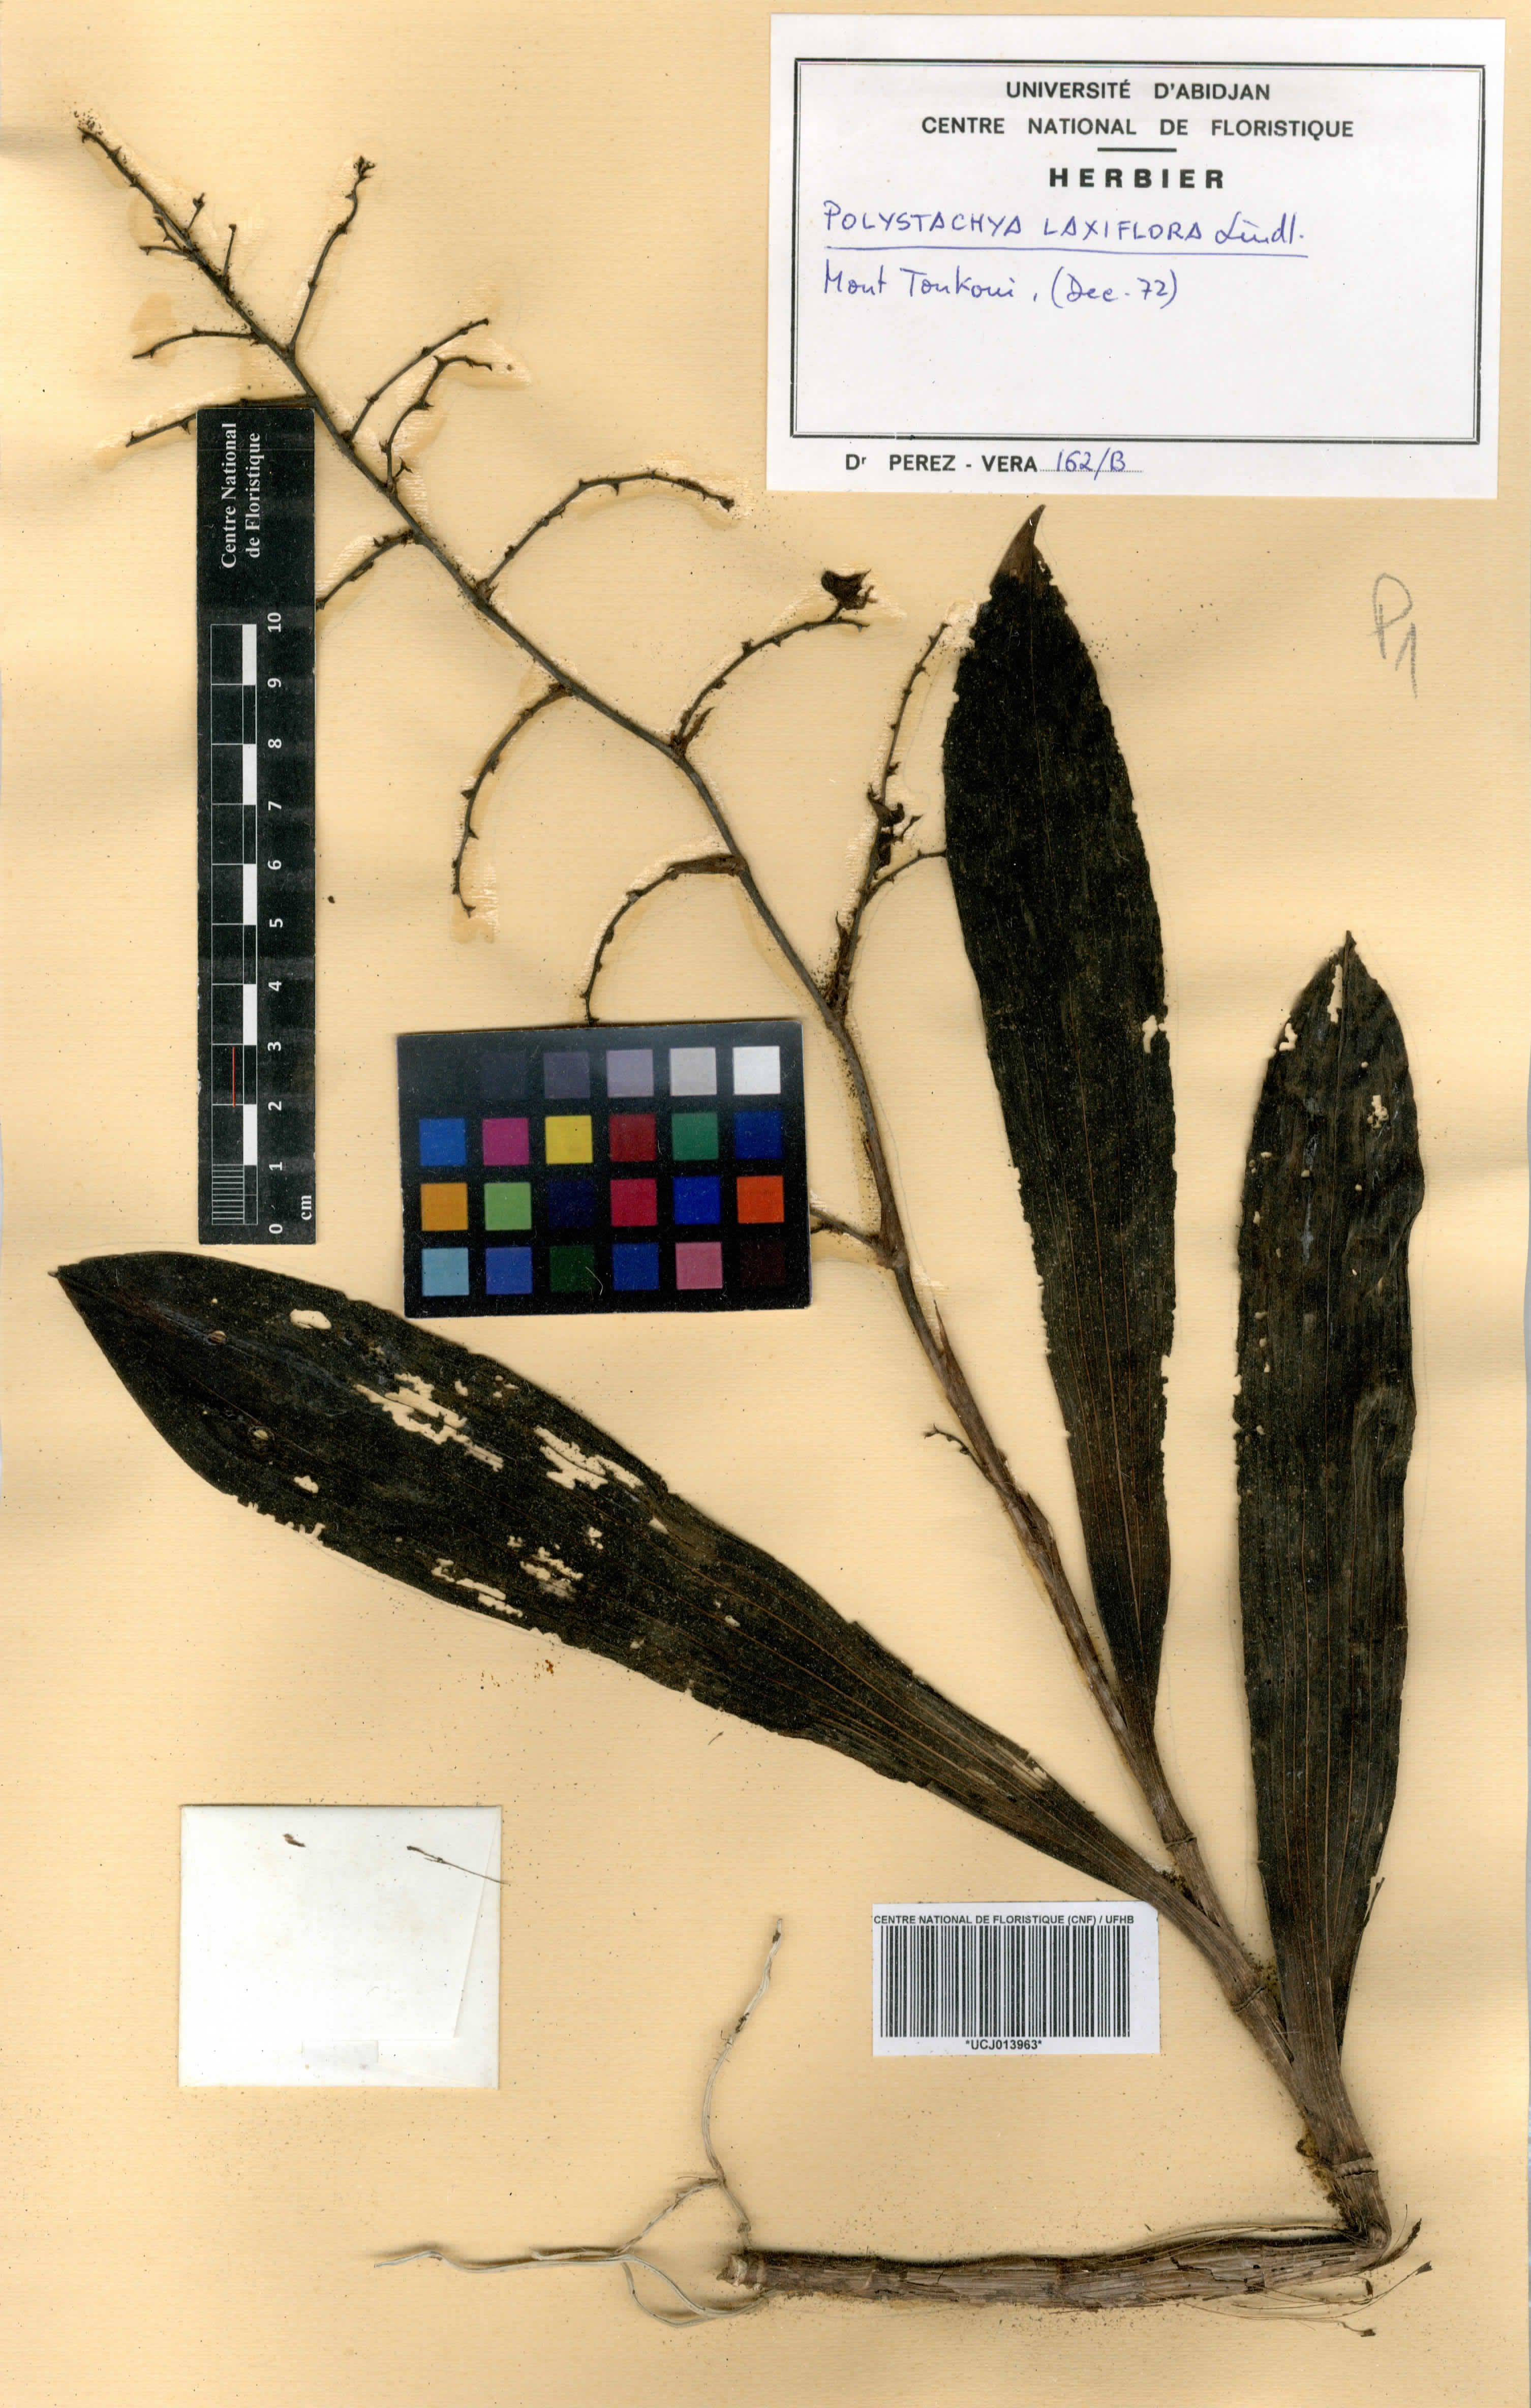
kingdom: Plantae
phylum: Tracheophyta
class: Liliopsida
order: Asparagales
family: Orchidaceae
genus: Polystachya
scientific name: Polystachya laxiflora
